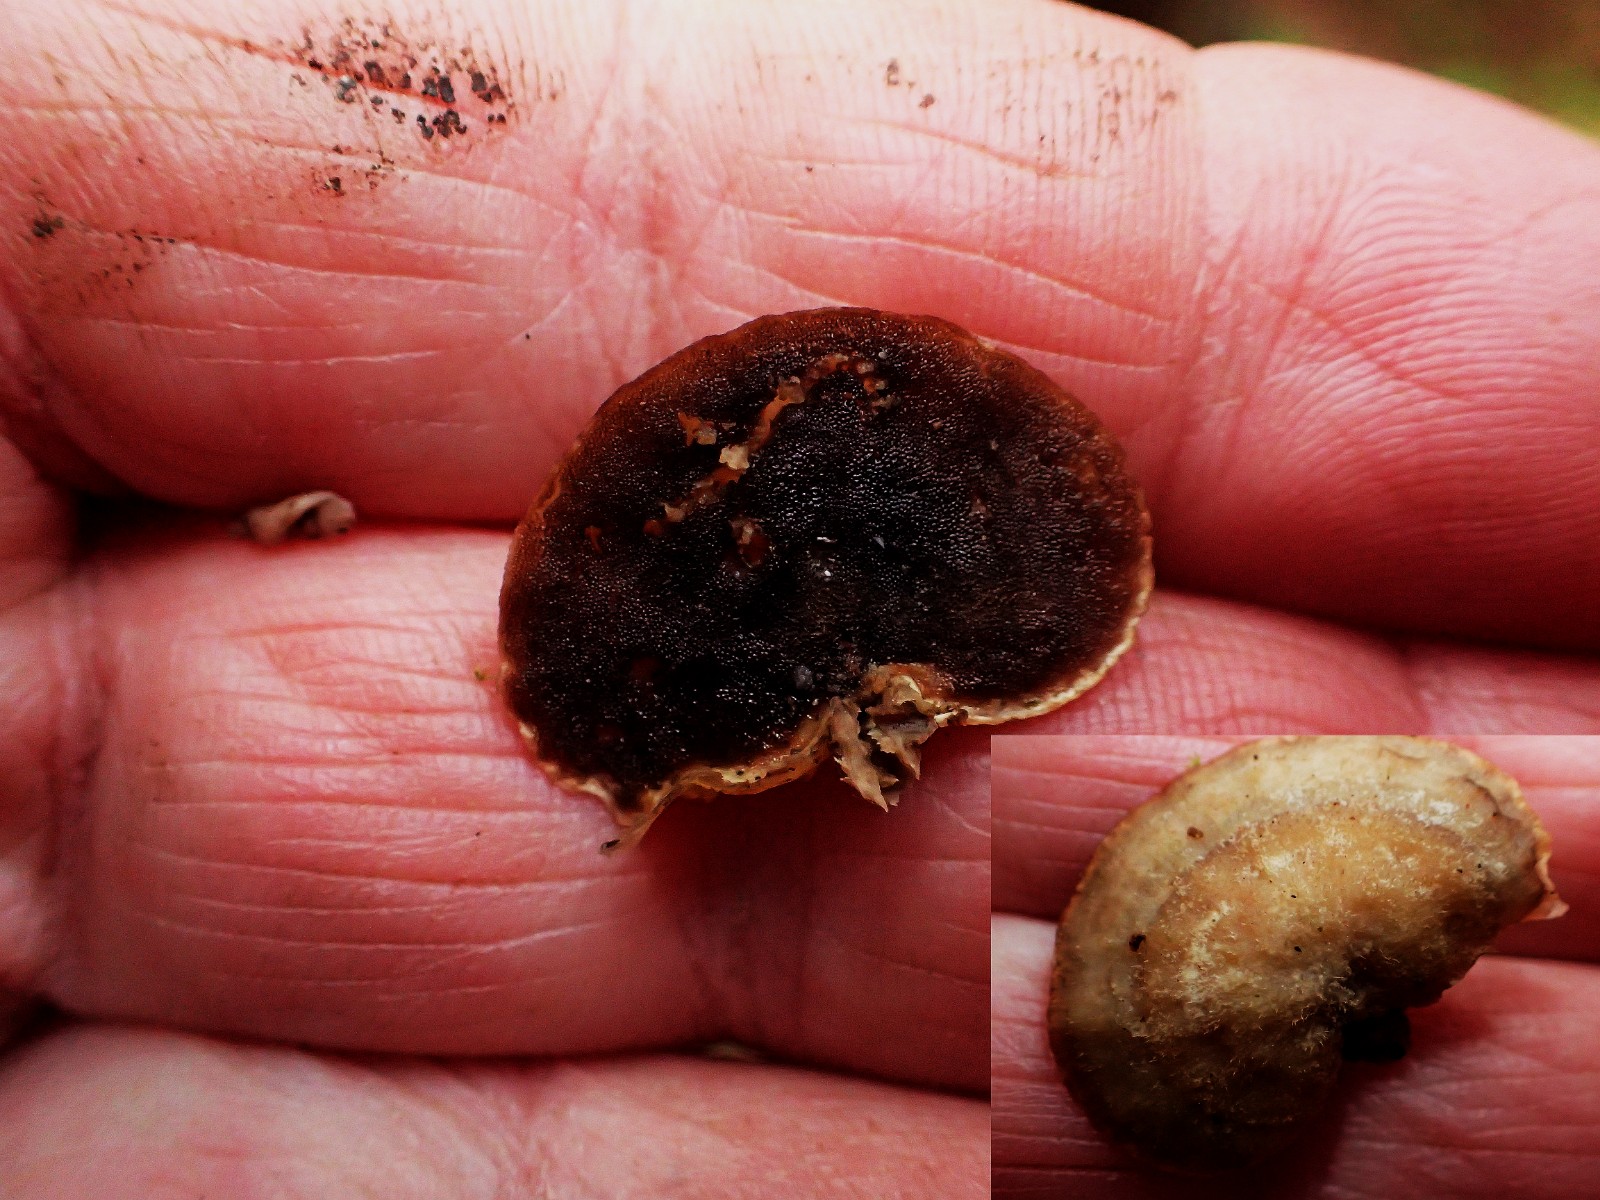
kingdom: Fungi
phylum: Basidiomycota
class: Agaricomycetes
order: Hymenochaetales
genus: Trichaptum
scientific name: Trichaptum abietinum
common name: almindelig violporesvamp
